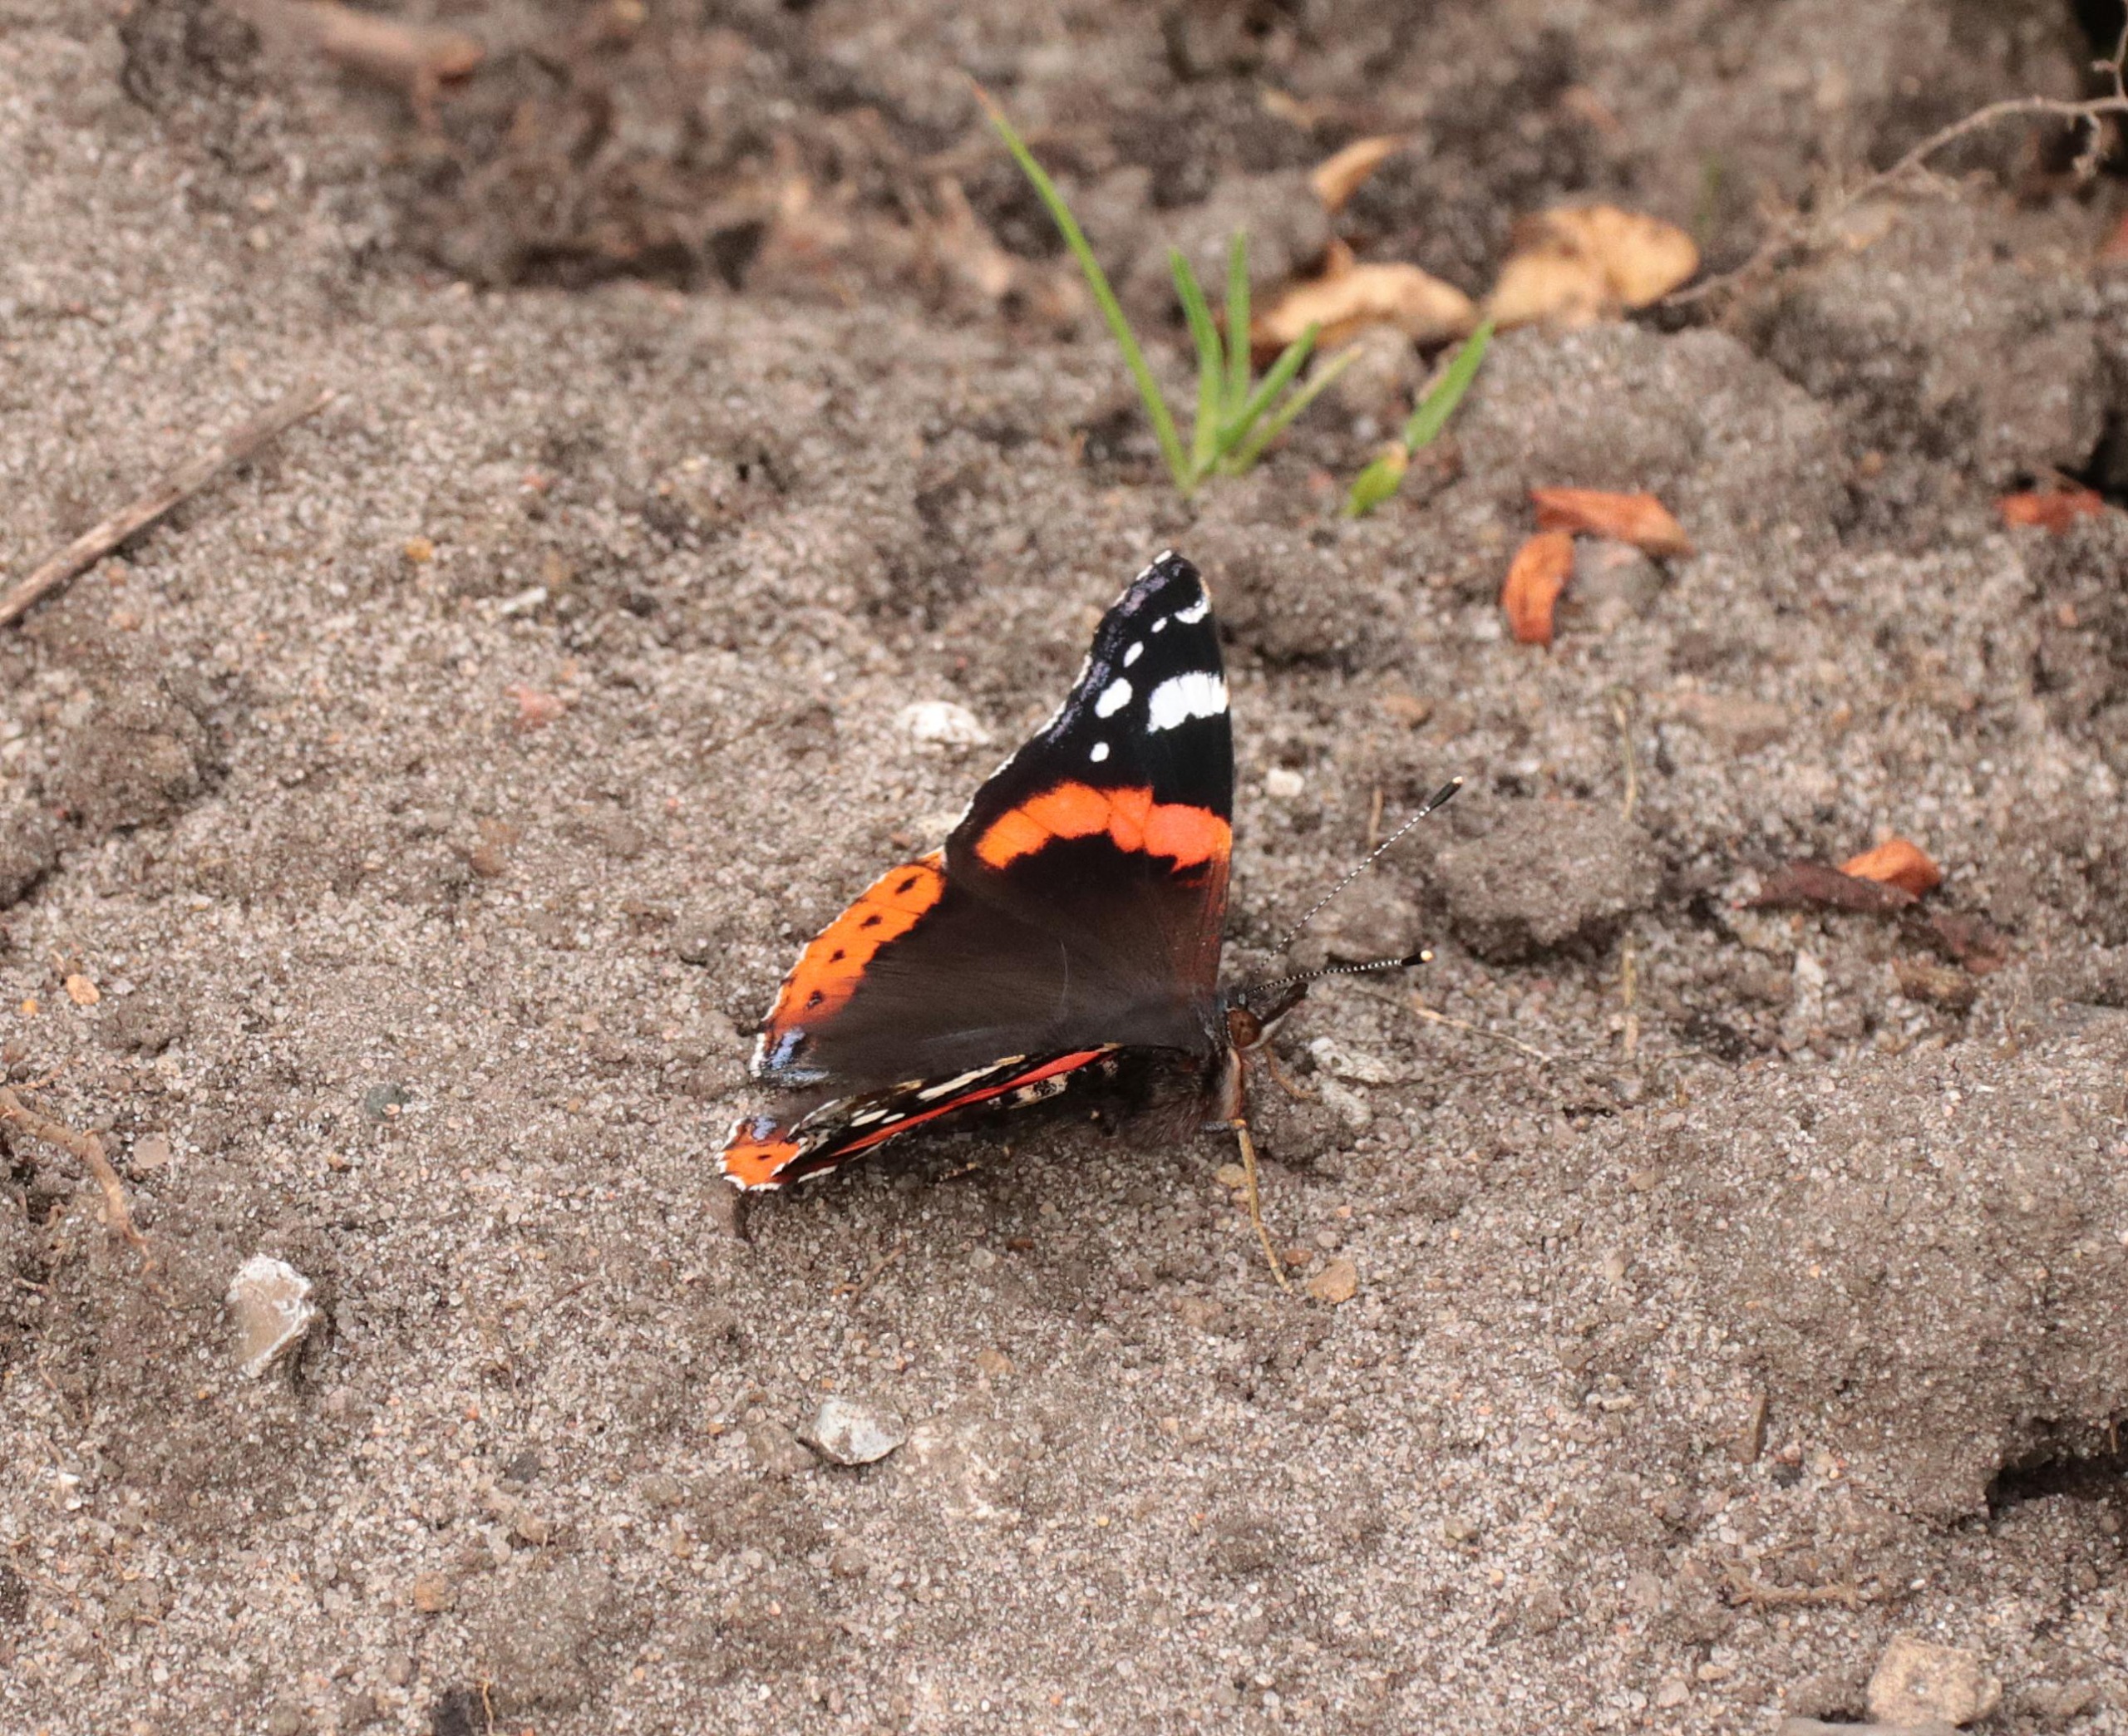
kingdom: Animalia
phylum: Arthropoda
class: Insecta
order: Lepidoptera
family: Nymphalidae
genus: Vanessa
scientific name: Vanessa atalanta
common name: Admiral
